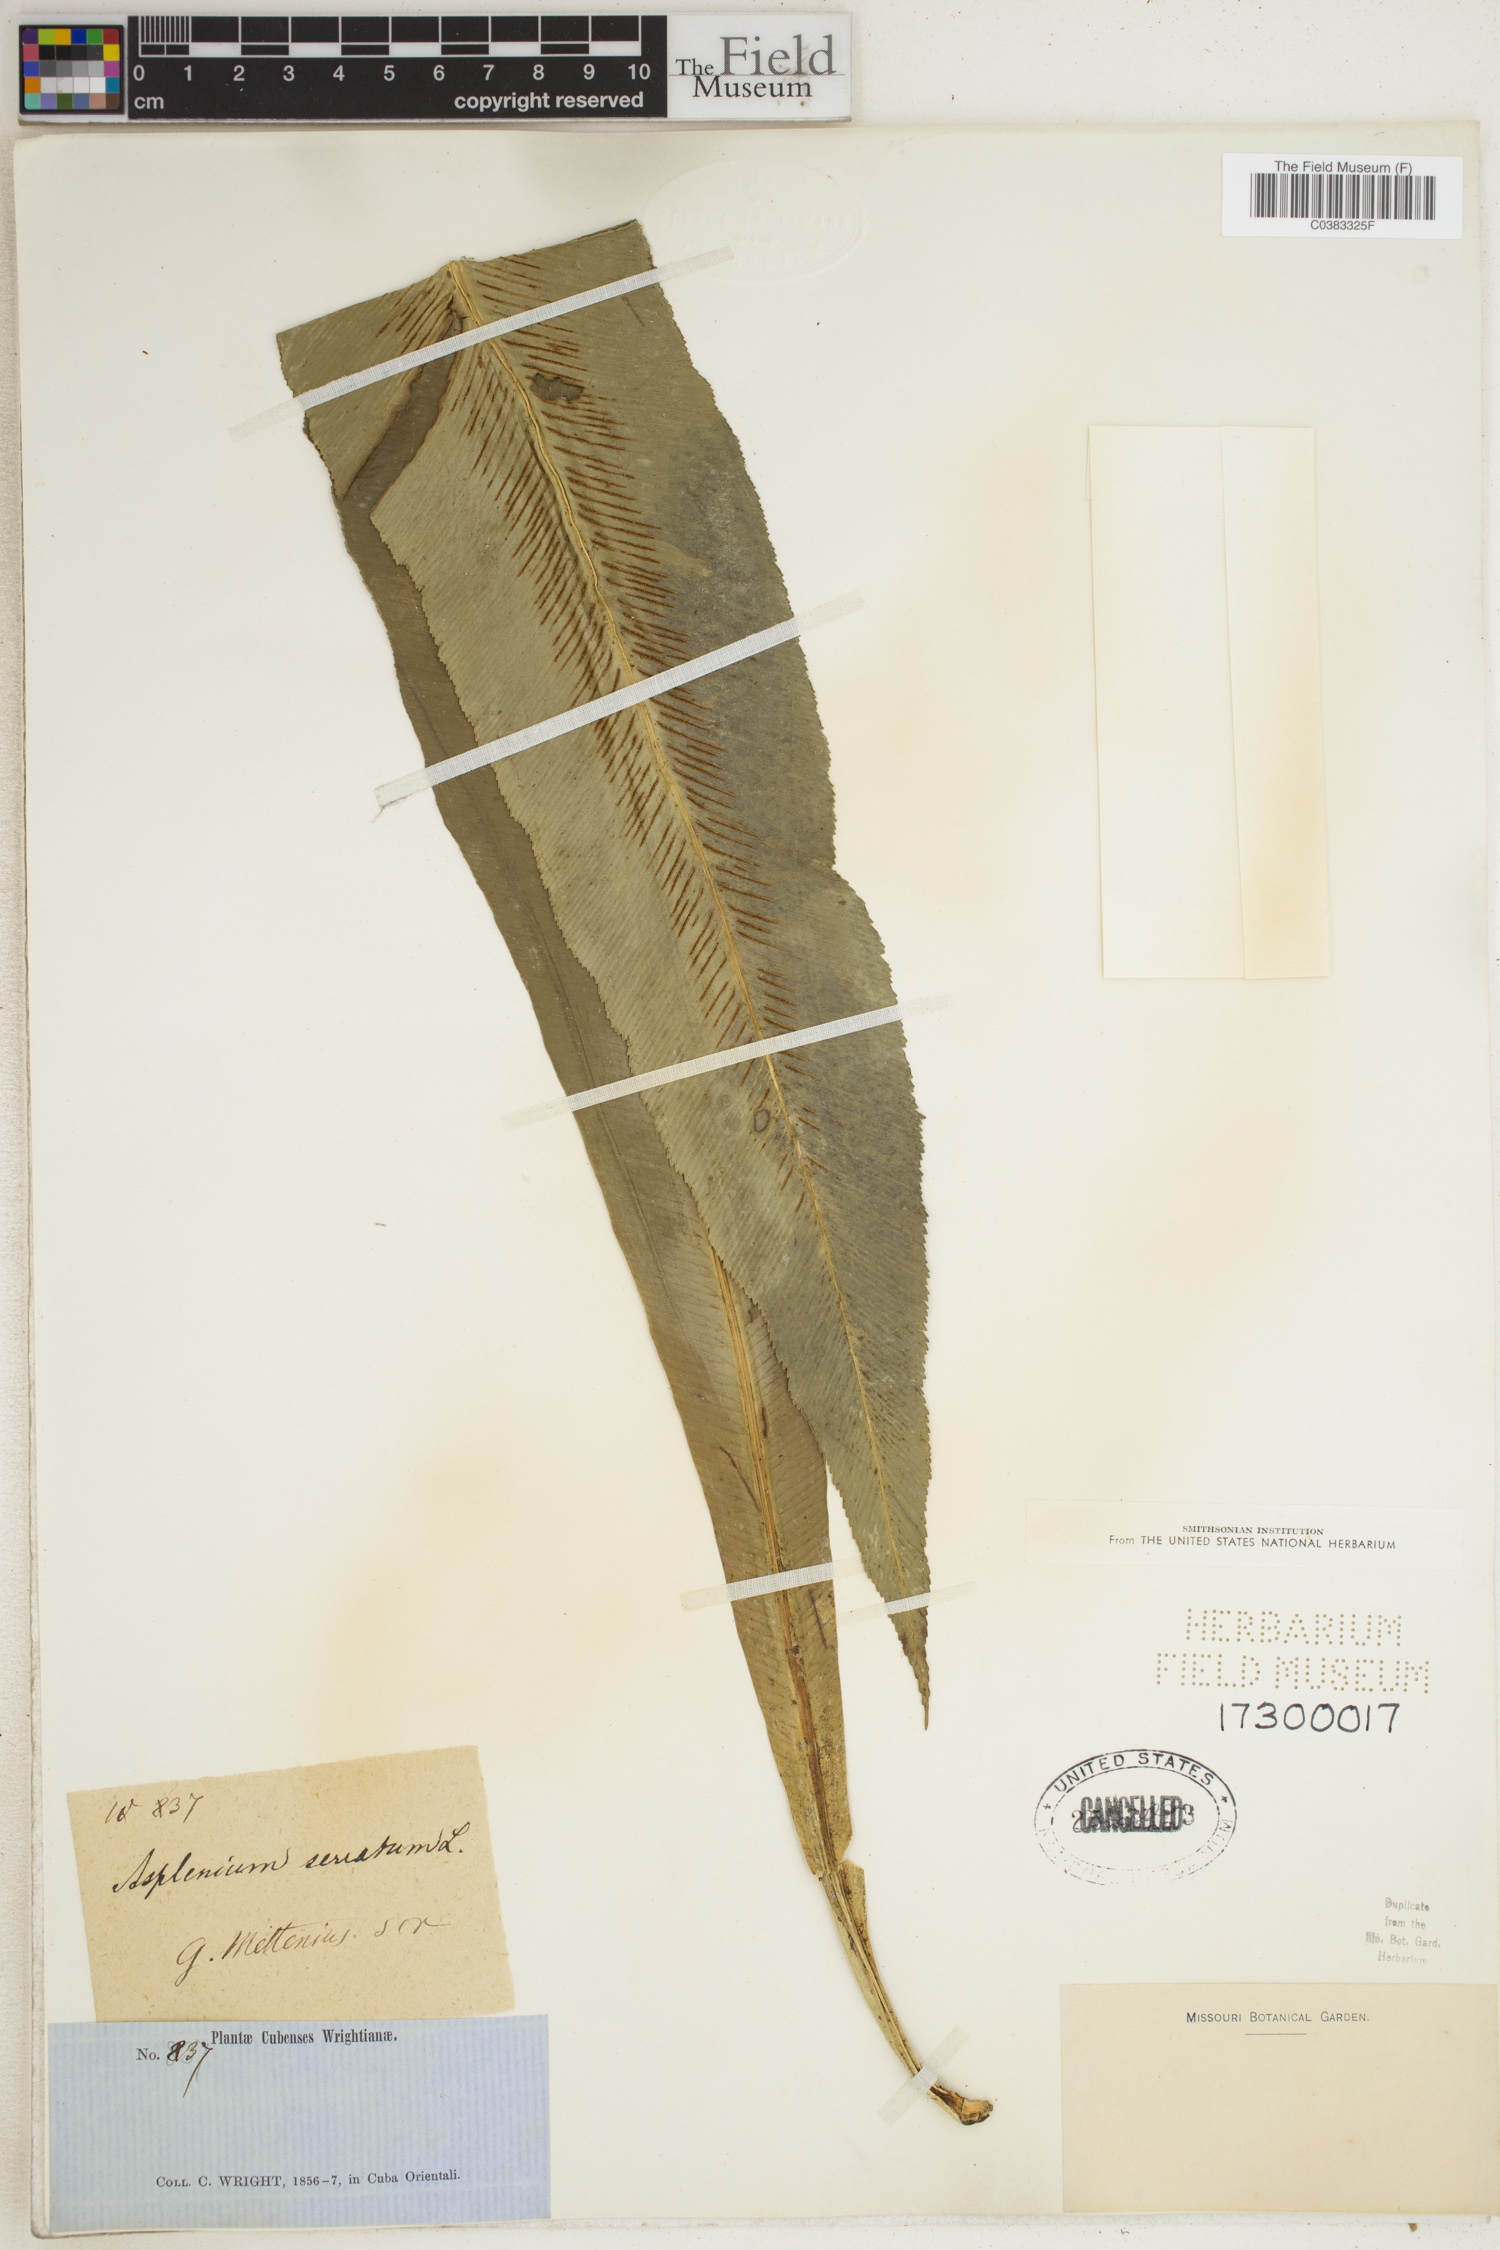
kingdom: Plantae
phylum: Tracheophyta
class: Polypodiopsida
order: Polypodiales
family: Aspleniaceae
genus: Asplenium
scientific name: Asplenium serratum
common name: Wild birdnest fern
